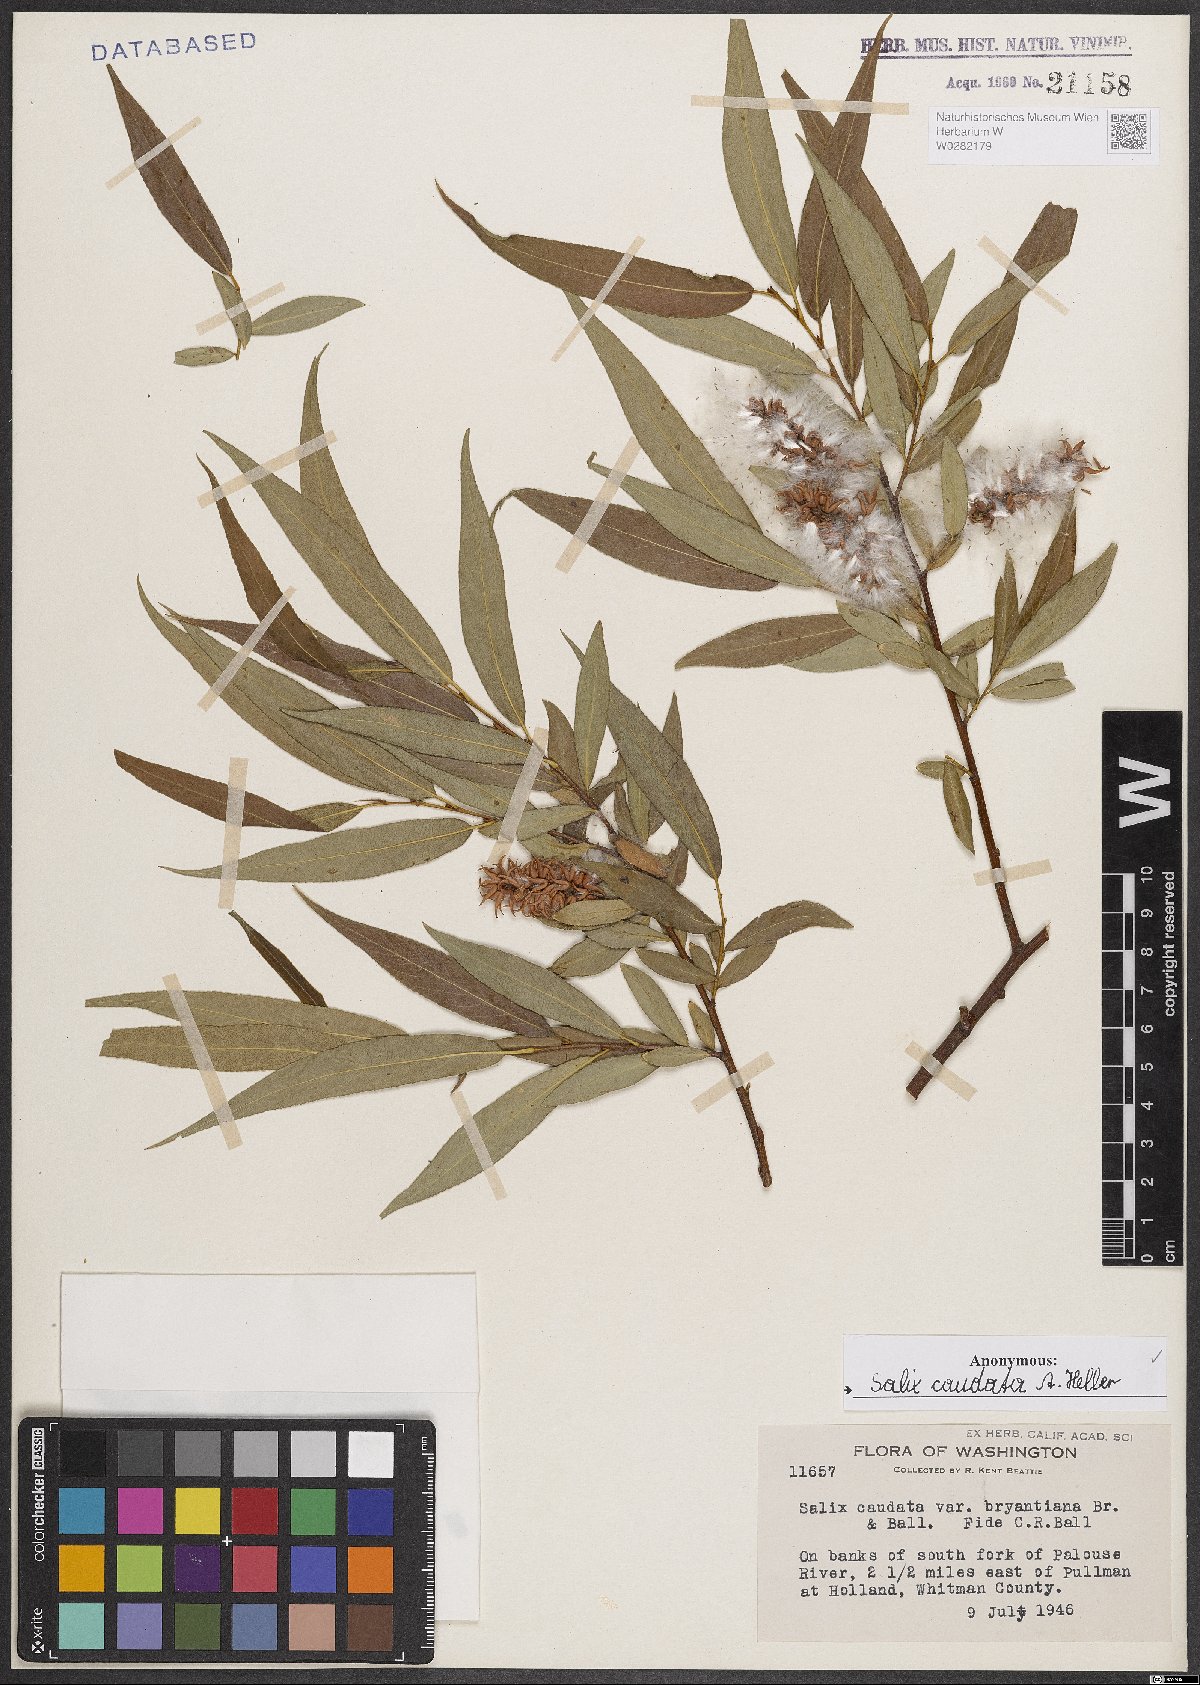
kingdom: Plantae
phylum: Tracheophyta
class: Magnoliopsida
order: Malpighiales
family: Salicaceae
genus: Salix
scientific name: Salix lucida
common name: Shining willow
